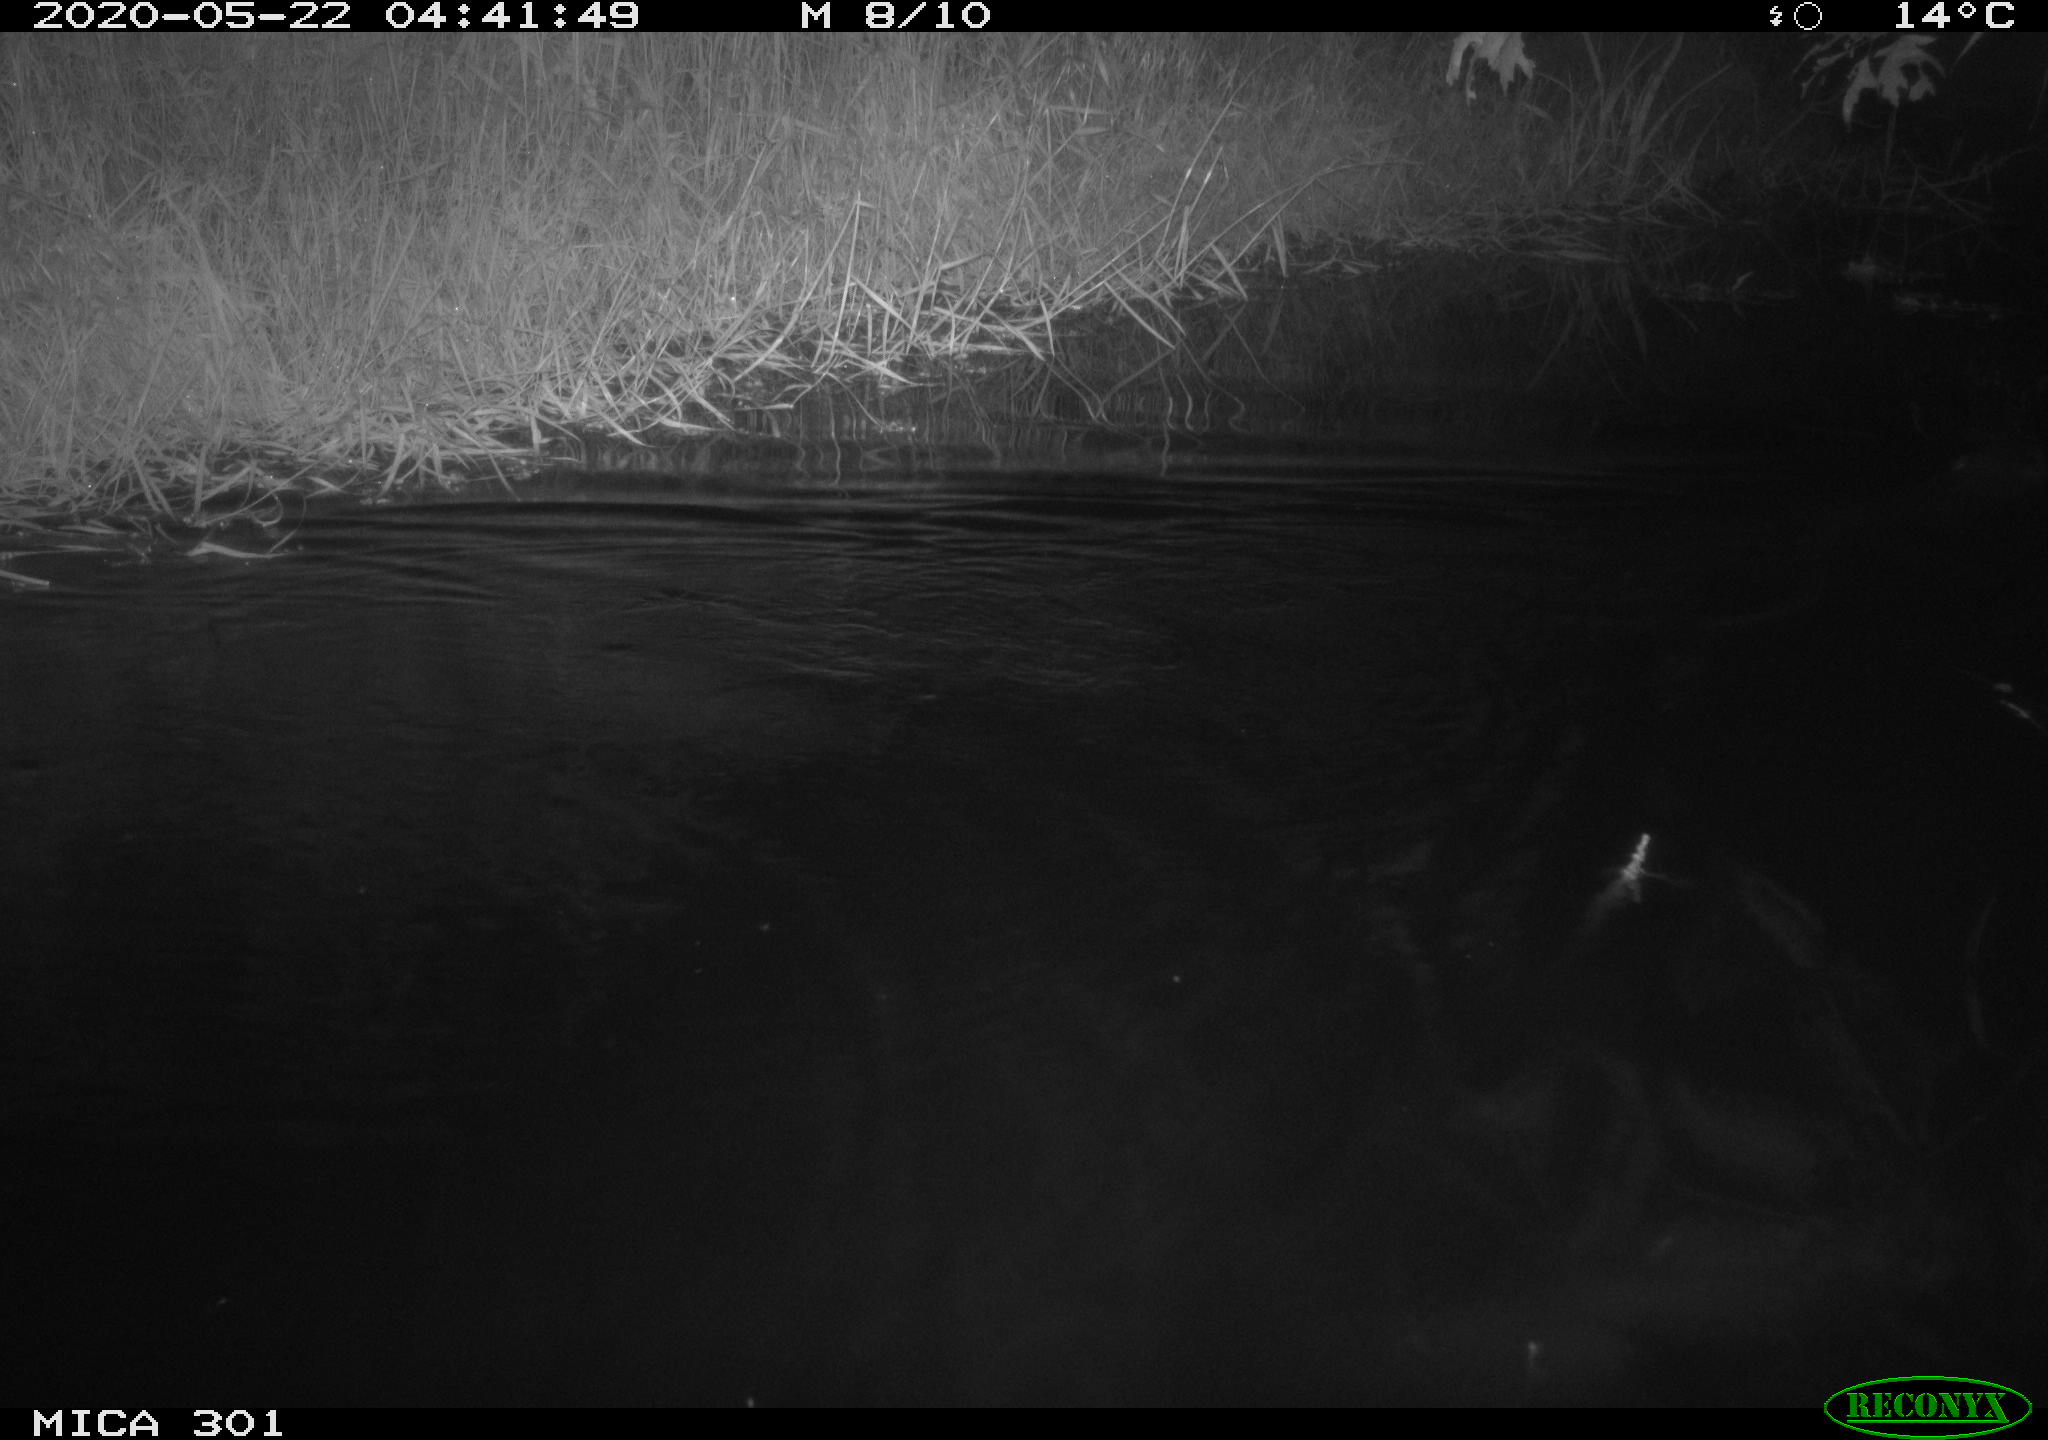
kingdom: Animalia
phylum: Chordata
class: Mammalia
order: Rodentia
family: Castoridae
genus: Castor
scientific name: Castor fiber
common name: Eurasian beaver
